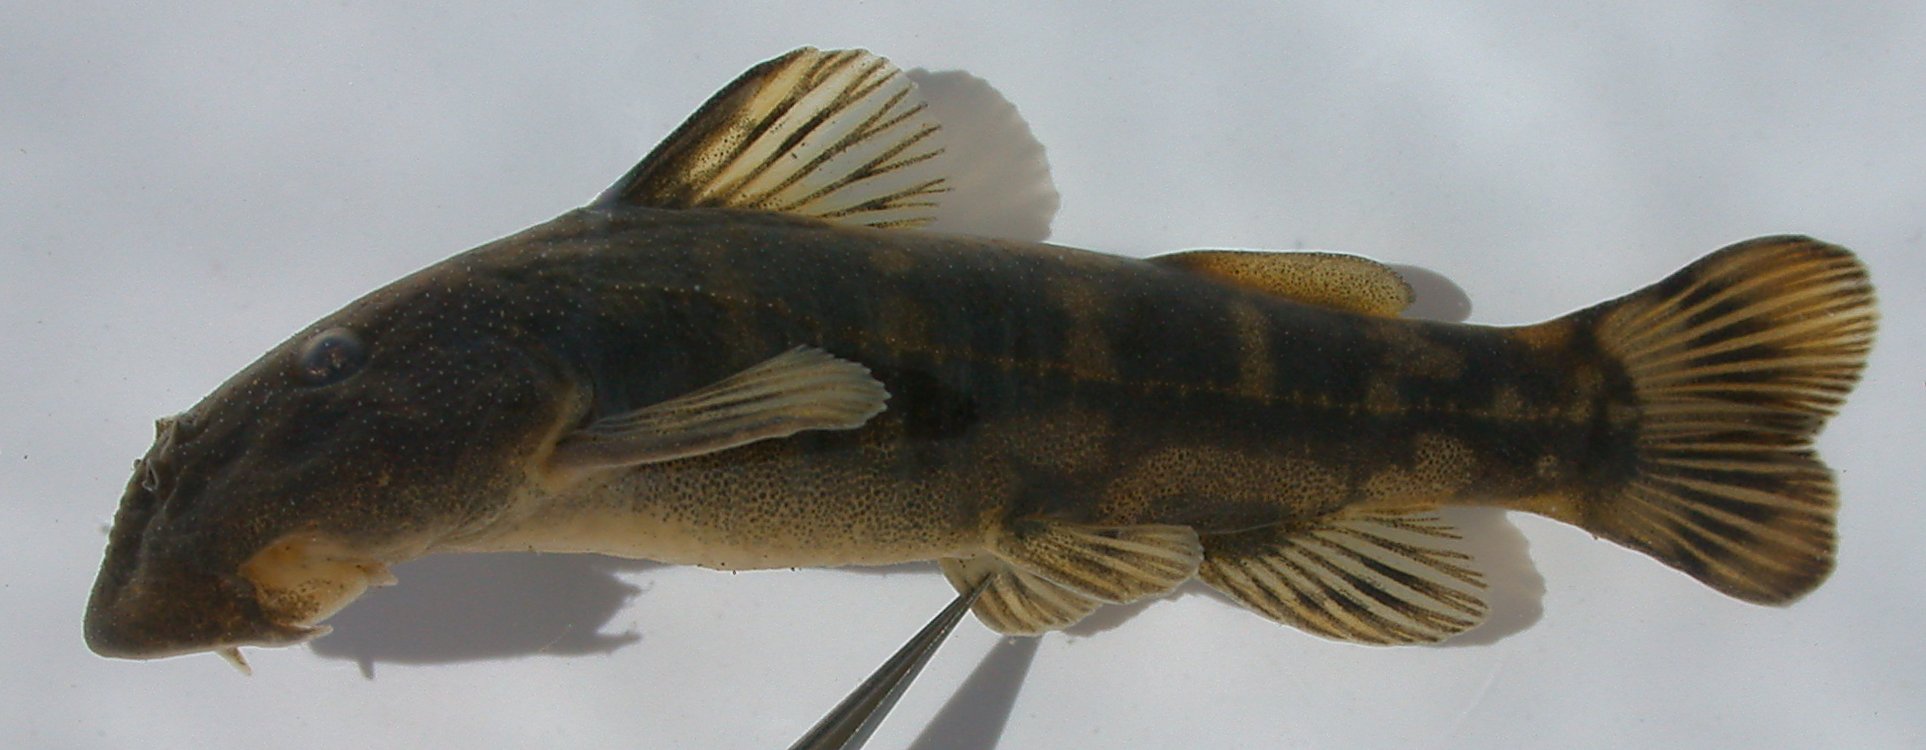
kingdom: Animalia
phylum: Chordata
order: Siluriformes
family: Mochokidae
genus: Chiloglanis
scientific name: Chiloglanis pretoriae
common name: Shortspine catlet
